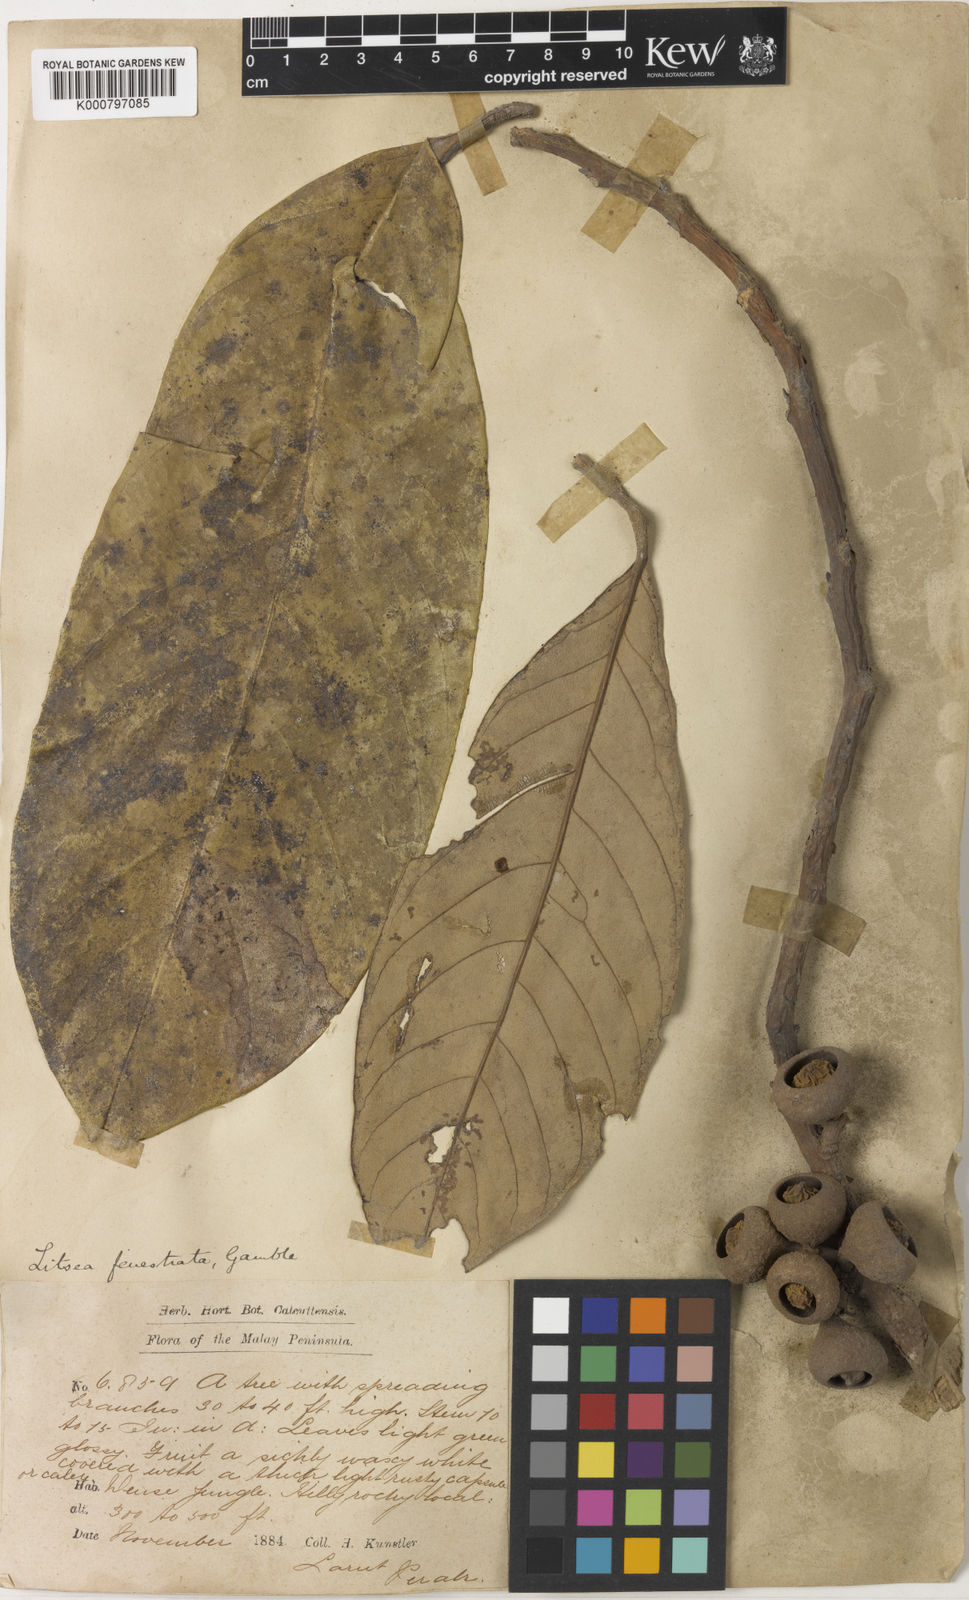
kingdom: Plantae
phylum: Tracheophyta
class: Magnoliopsida
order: Laurales
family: Lauraceae
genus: Litsea
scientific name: Litsea fenestrata
